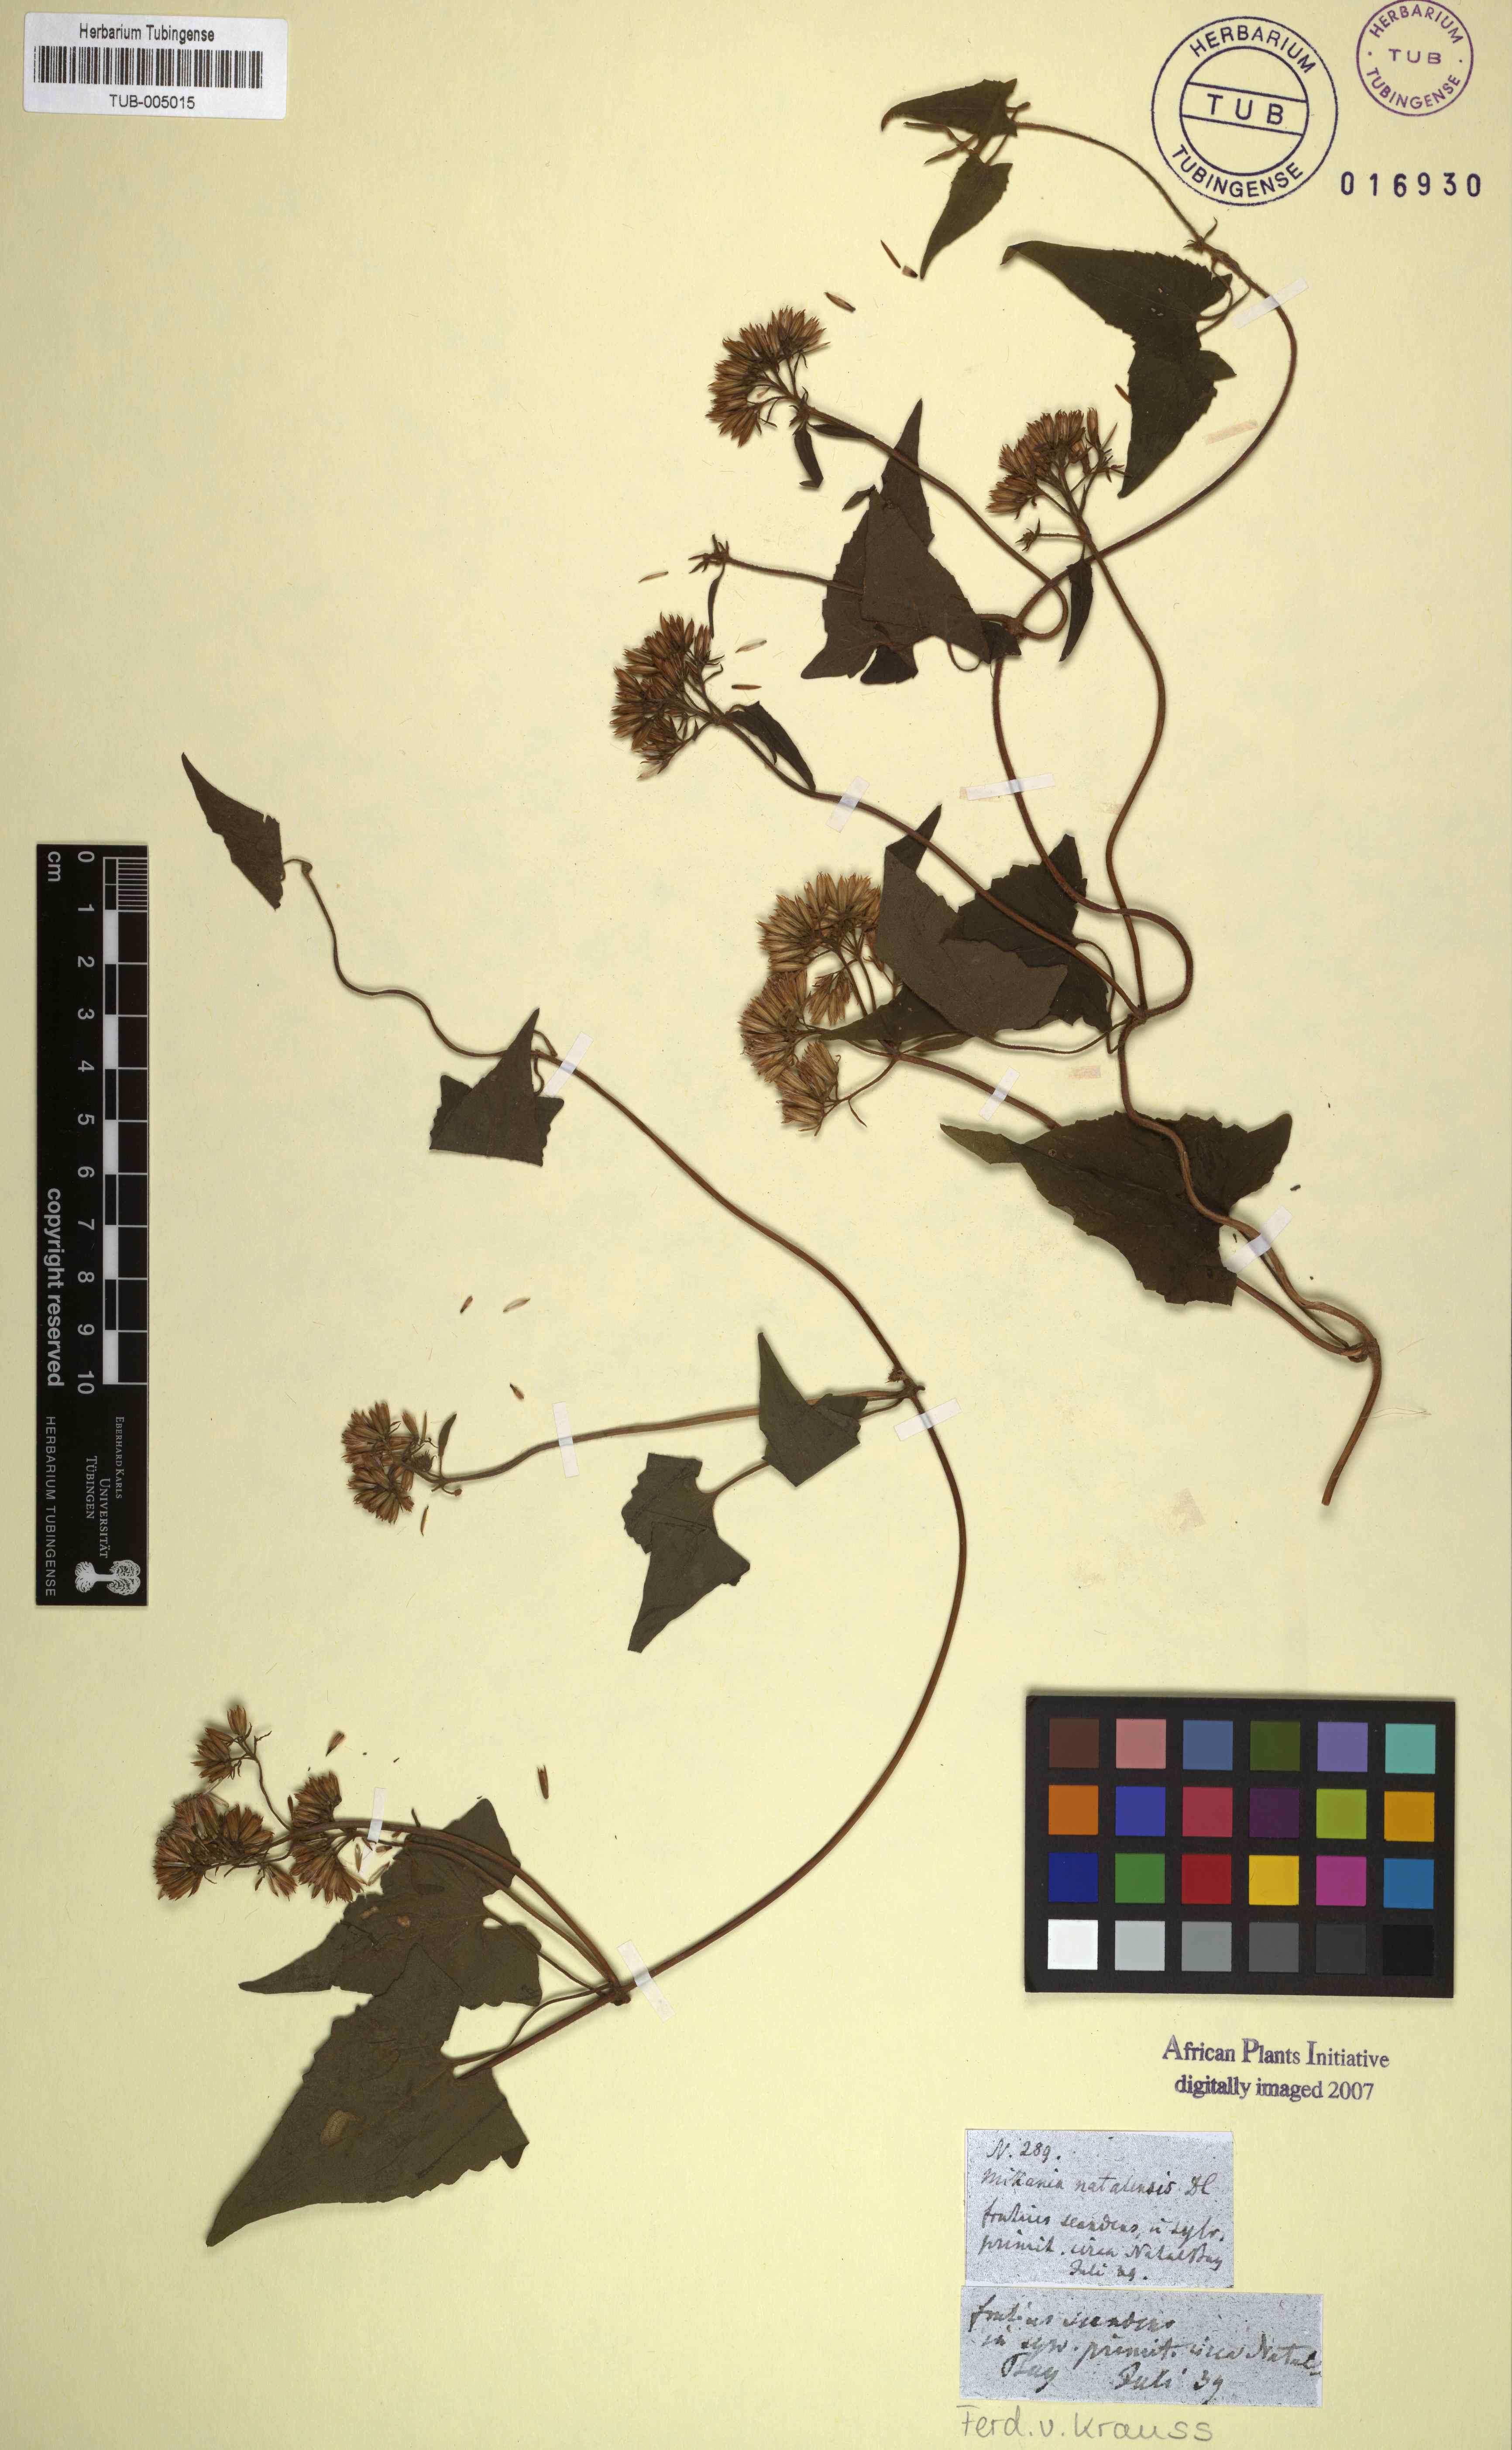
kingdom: Plantae
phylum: Tracheophyta
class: Magnoliopsida
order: Asterales
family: Asteraceae
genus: Mikania
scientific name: Mikania natalensis
